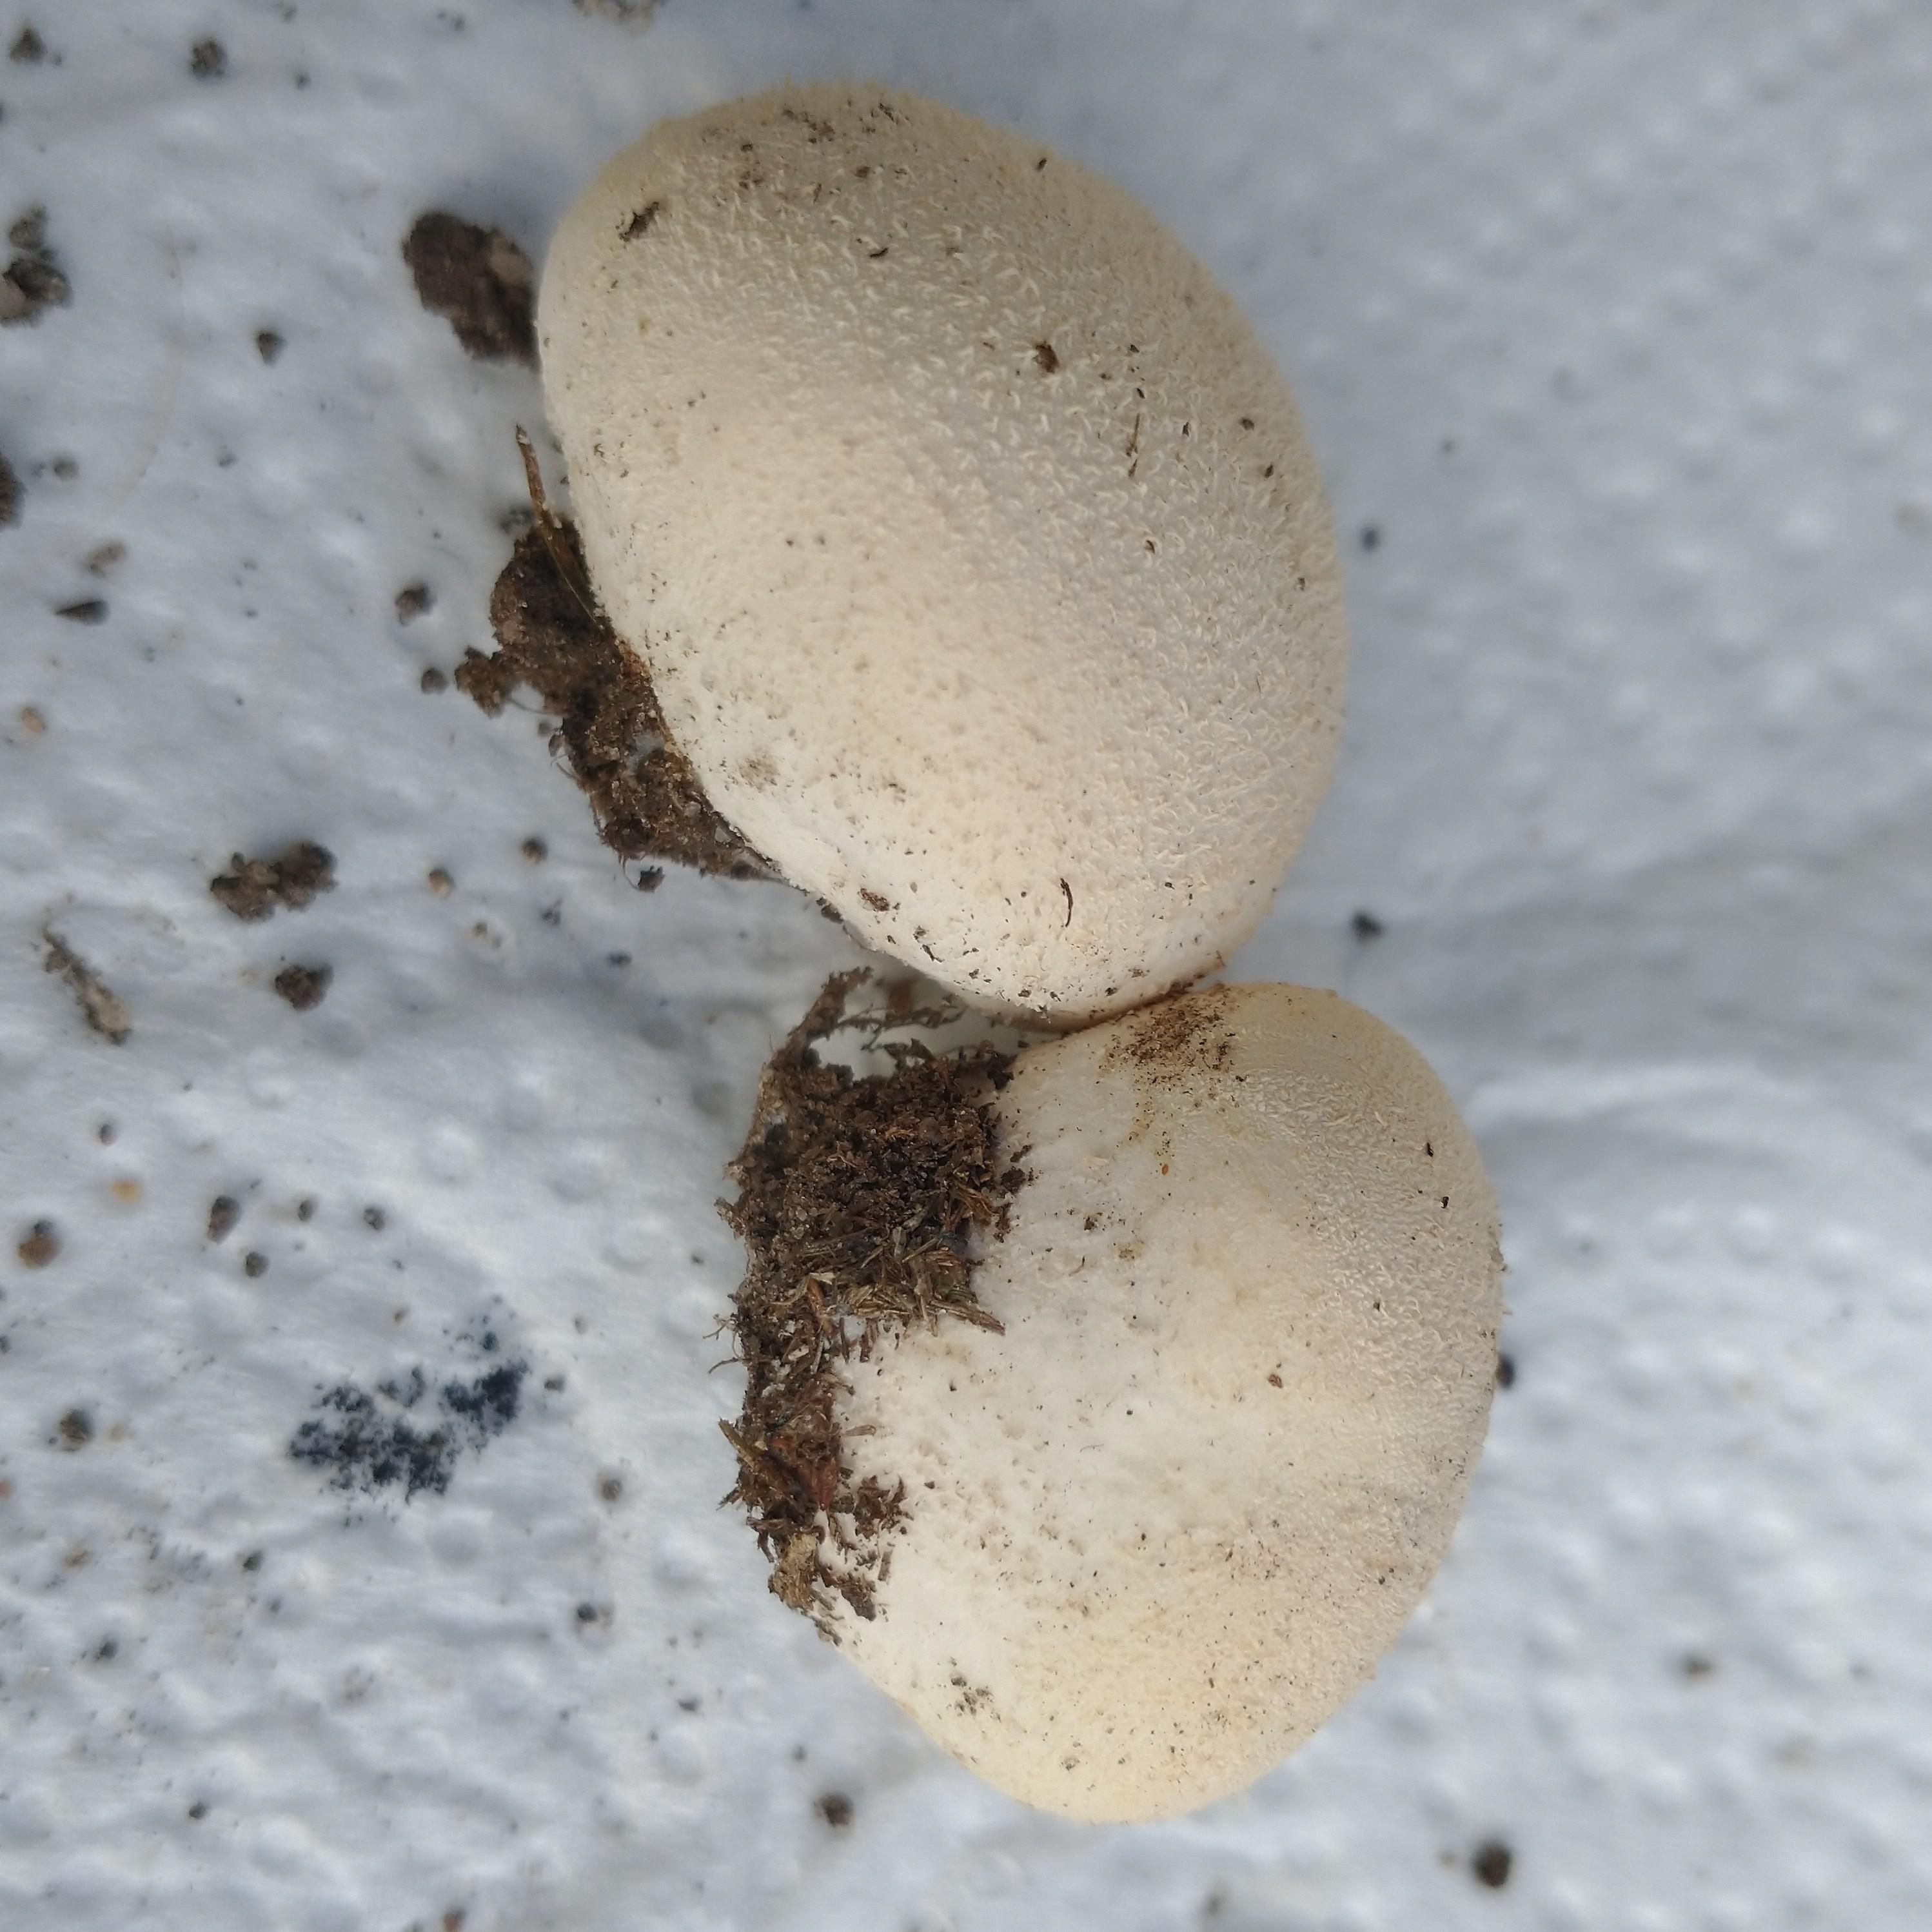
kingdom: Fungi
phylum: Basidiomycota
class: Agaricomycetes
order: Boletales
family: Sclerodermataceae
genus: Scleroderma
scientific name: Scleroderma citrinum
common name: almindelig bruskbold
